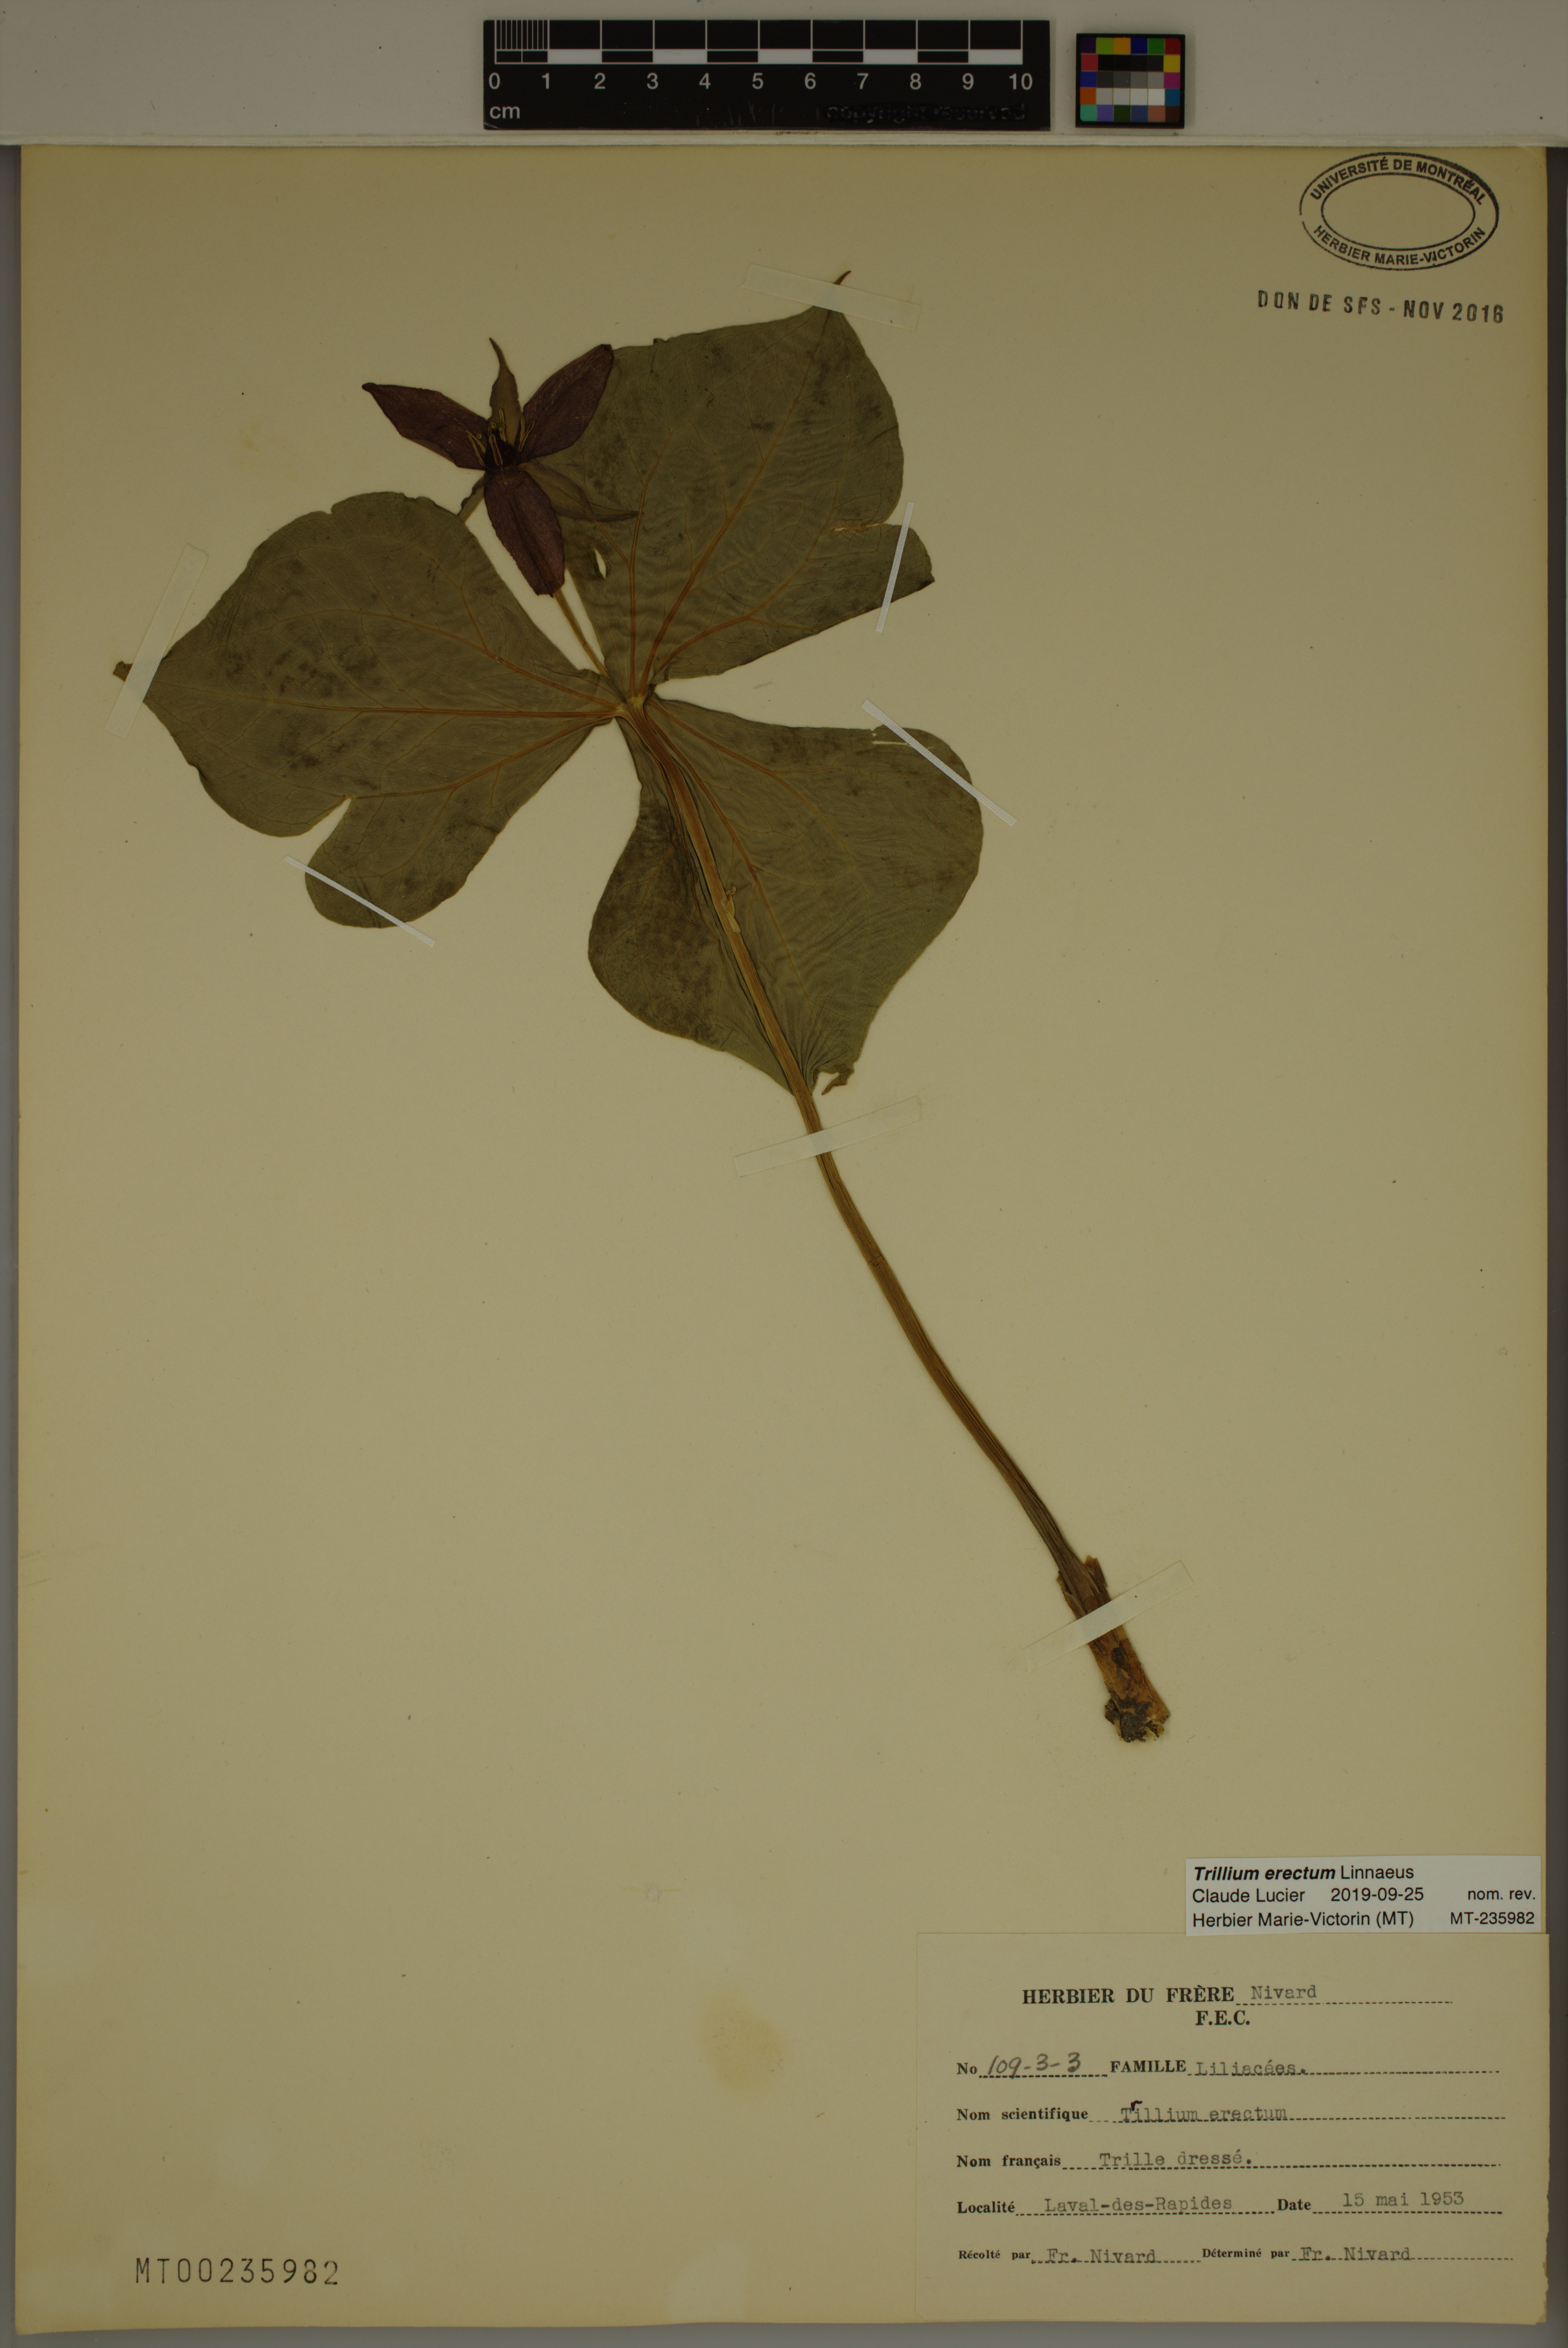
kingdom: Plantae
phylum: Tracheophyta
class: Liliopsida
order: Liliales
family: Melanthiaceae
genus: Trillium
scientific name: Trillium erectum
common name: Purple trillium
